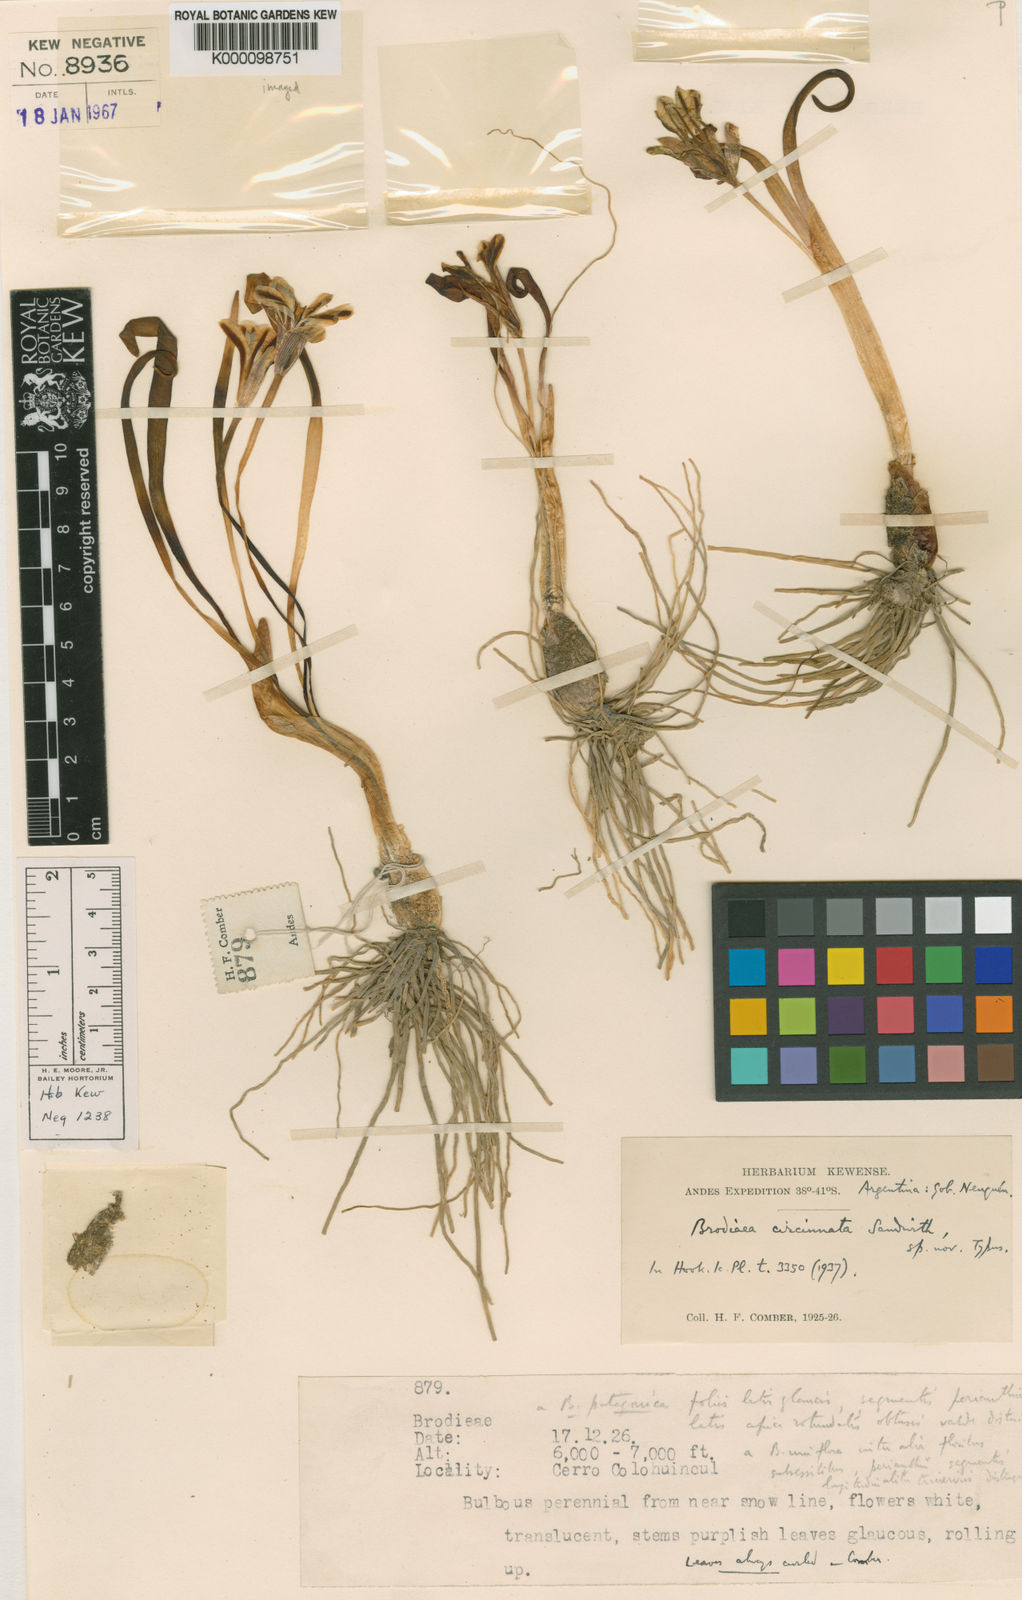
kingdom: Plantae
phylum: Tracheophyta
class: Liliopsida
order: Asparagales
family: Amaryllidaceae
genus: Tristagma
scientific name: Tristagma patagonicum
